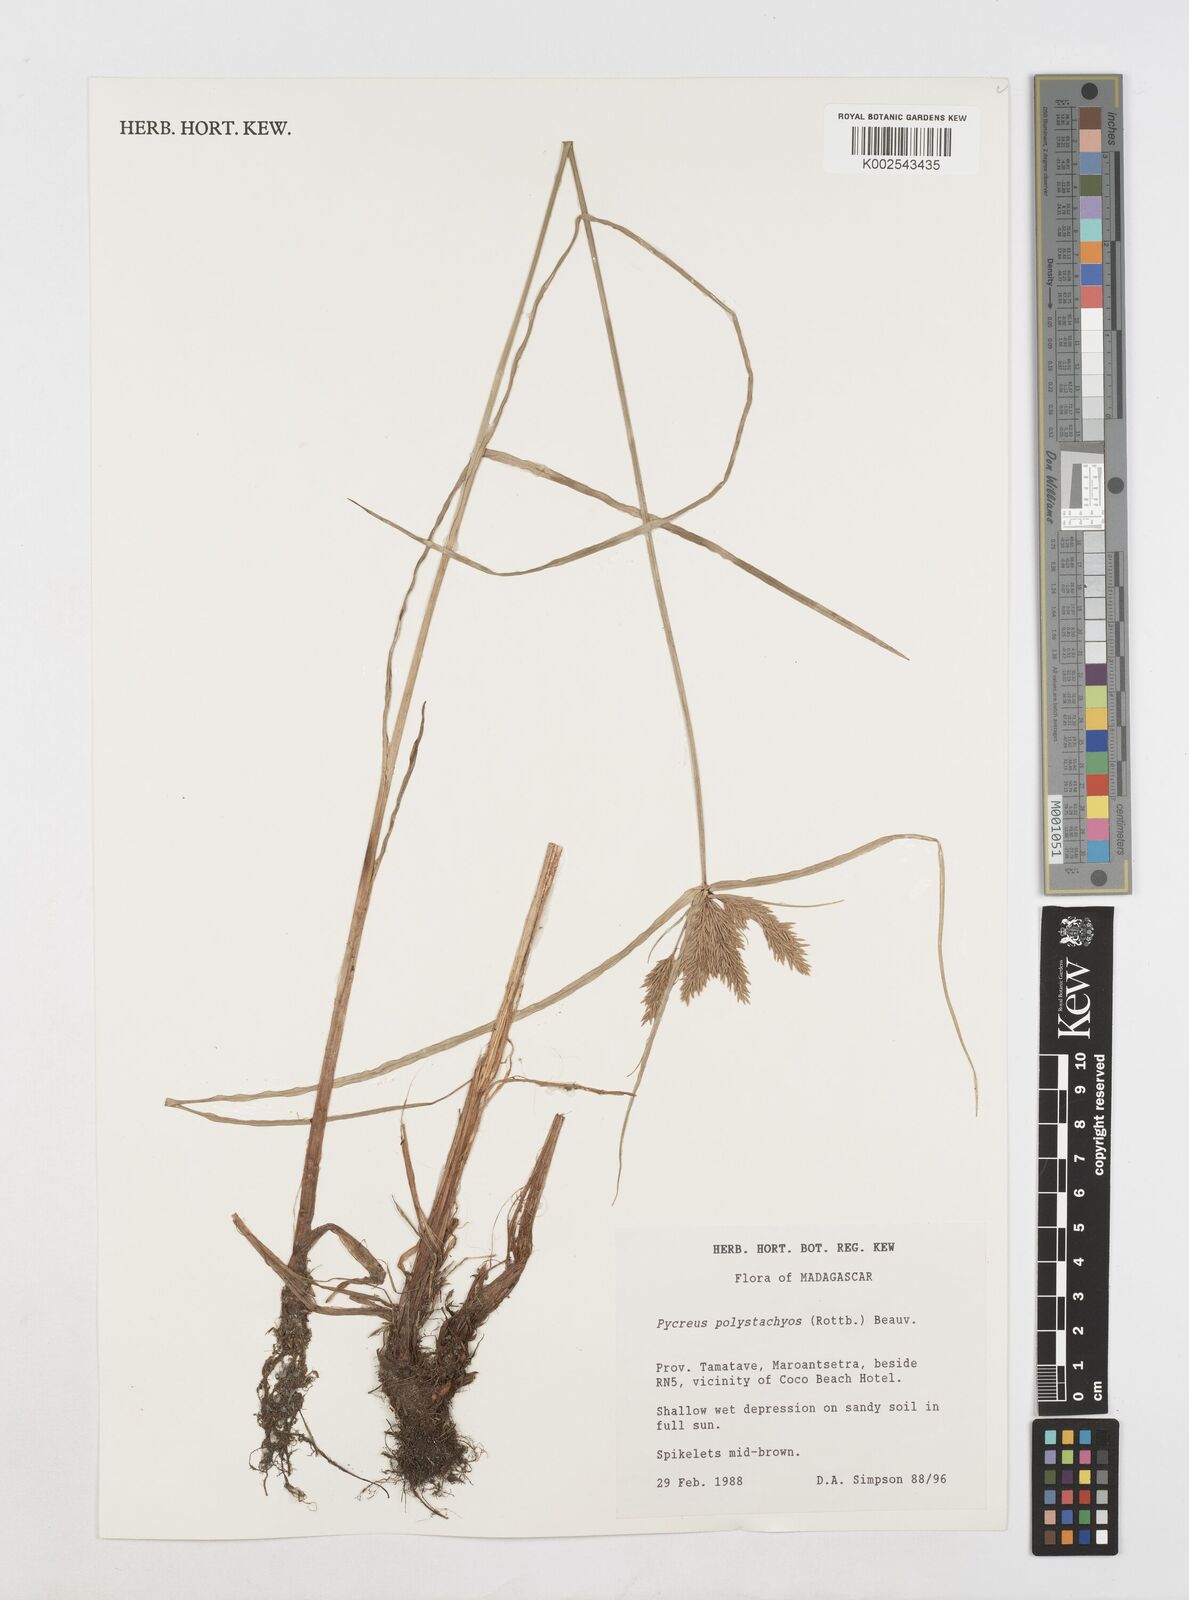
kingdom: Plantae
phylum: Tracheophyta
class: Liliopsida
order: Poales
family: Cyperaceae
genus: Cyperus
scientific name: Cyperus polystachyos
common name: Bunchy flat sedge
